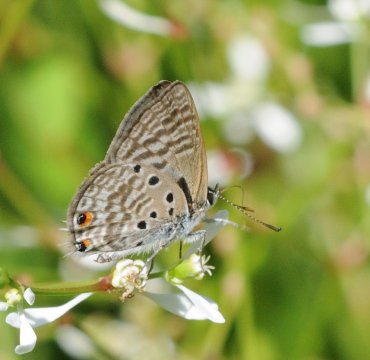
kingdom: Animalia
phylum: Arthropoda
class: Insecta
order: Lepidoptera
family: Lycaenidae
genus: Anthene
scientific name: Anthene amarah
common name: Black-striped Hairtail
